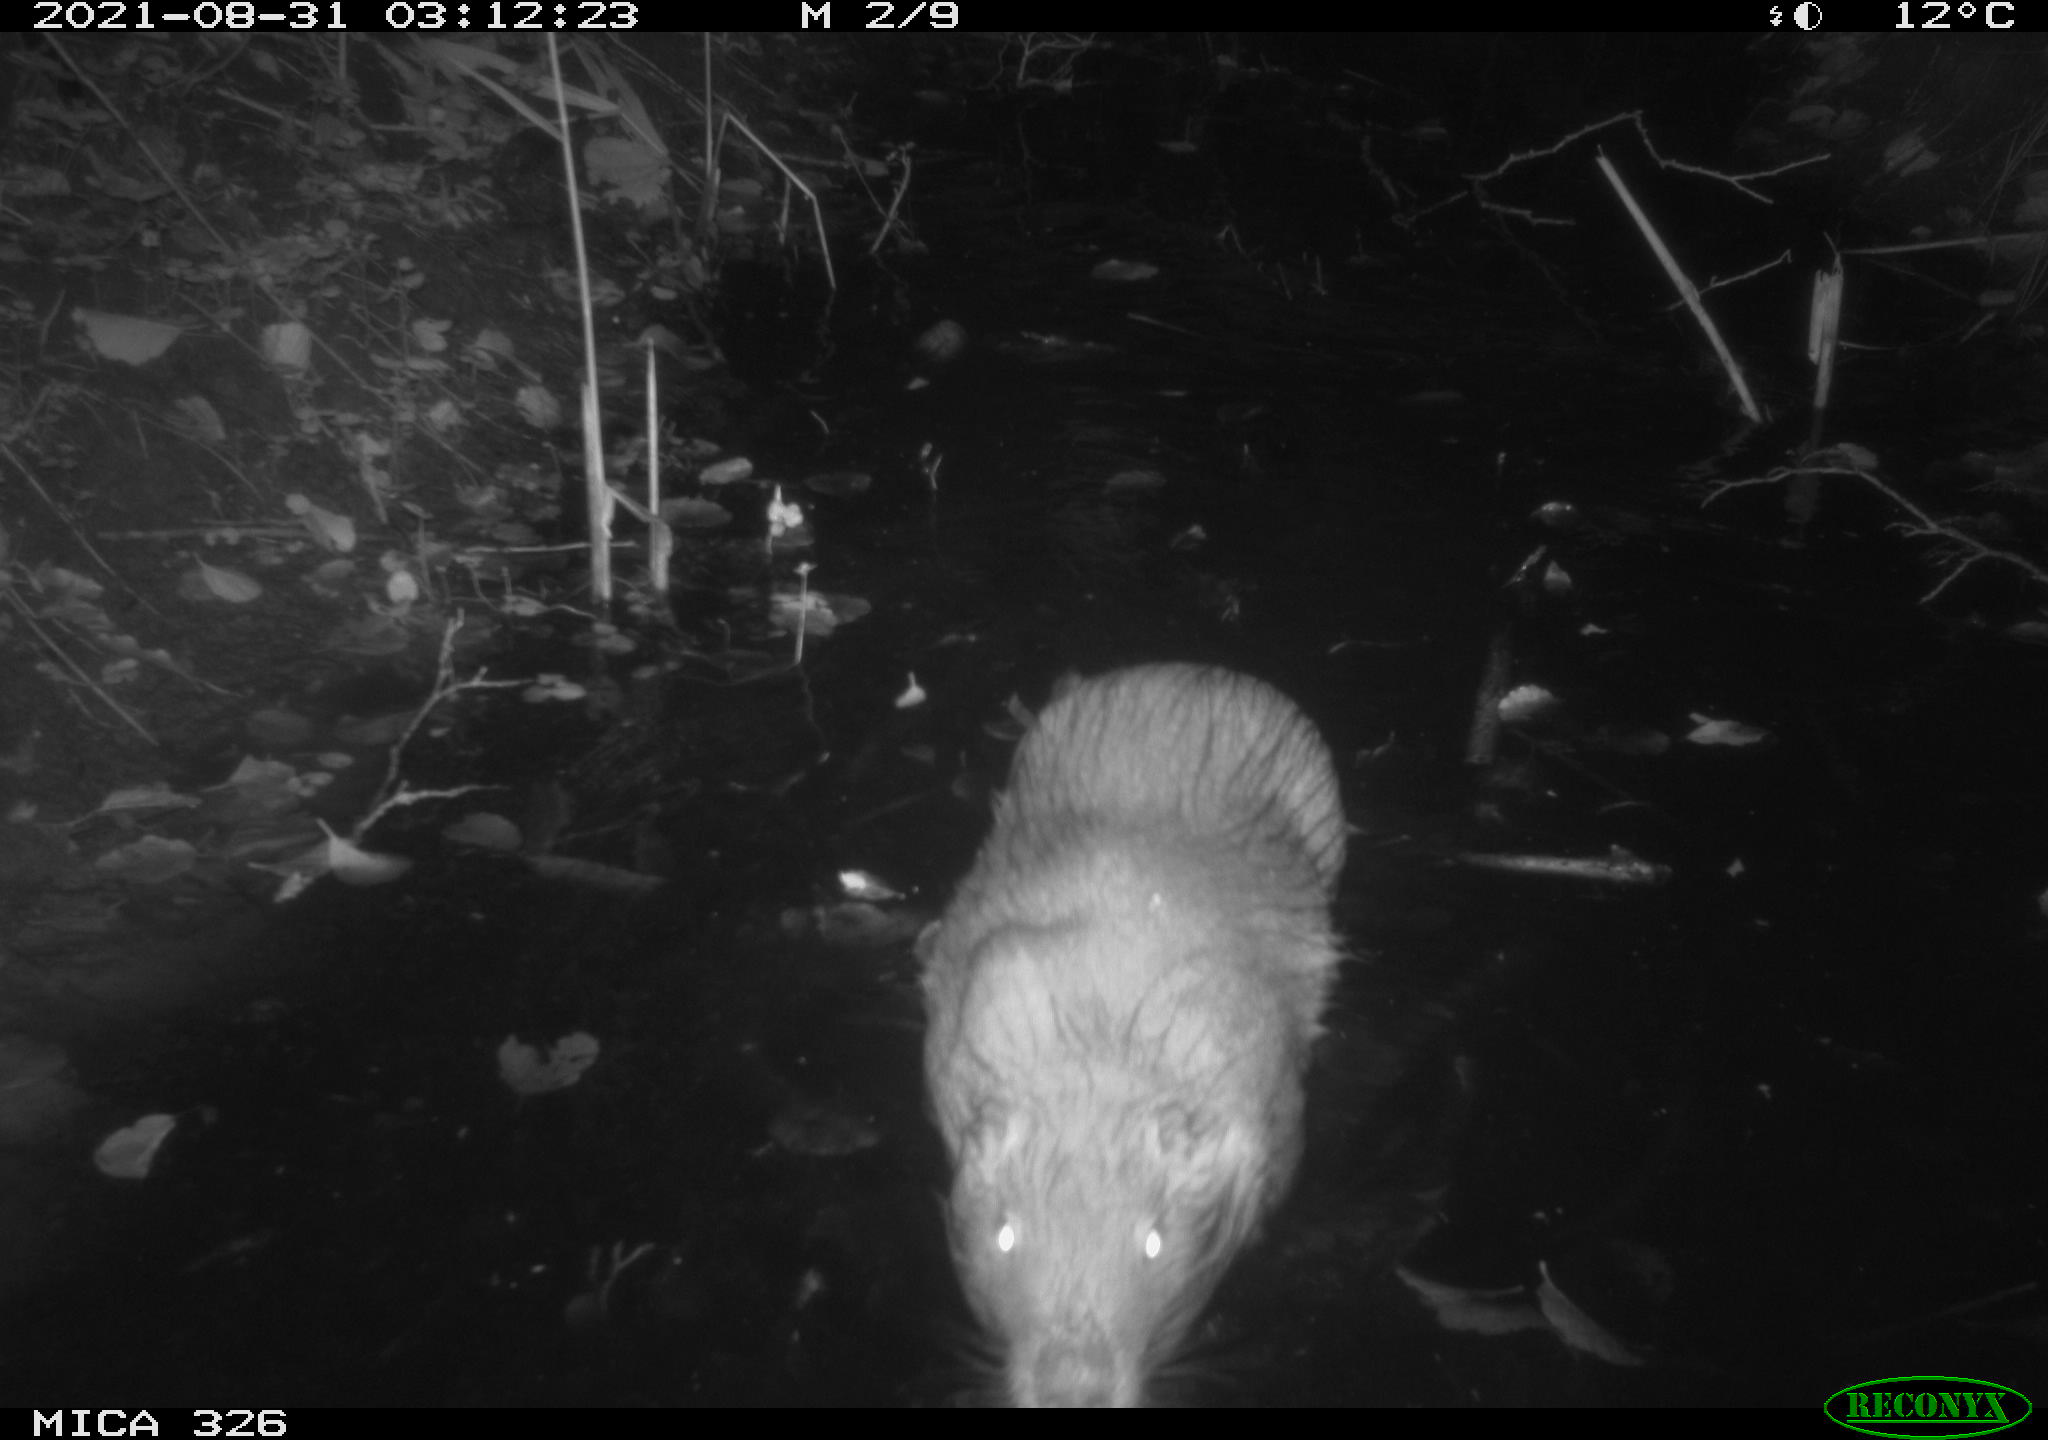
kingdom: Animalia
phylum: Chordata
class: Mammalia
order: Rodentia
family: Myocastoridae
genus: Myocastor
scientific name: Myocastor coypus
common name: Coypu
